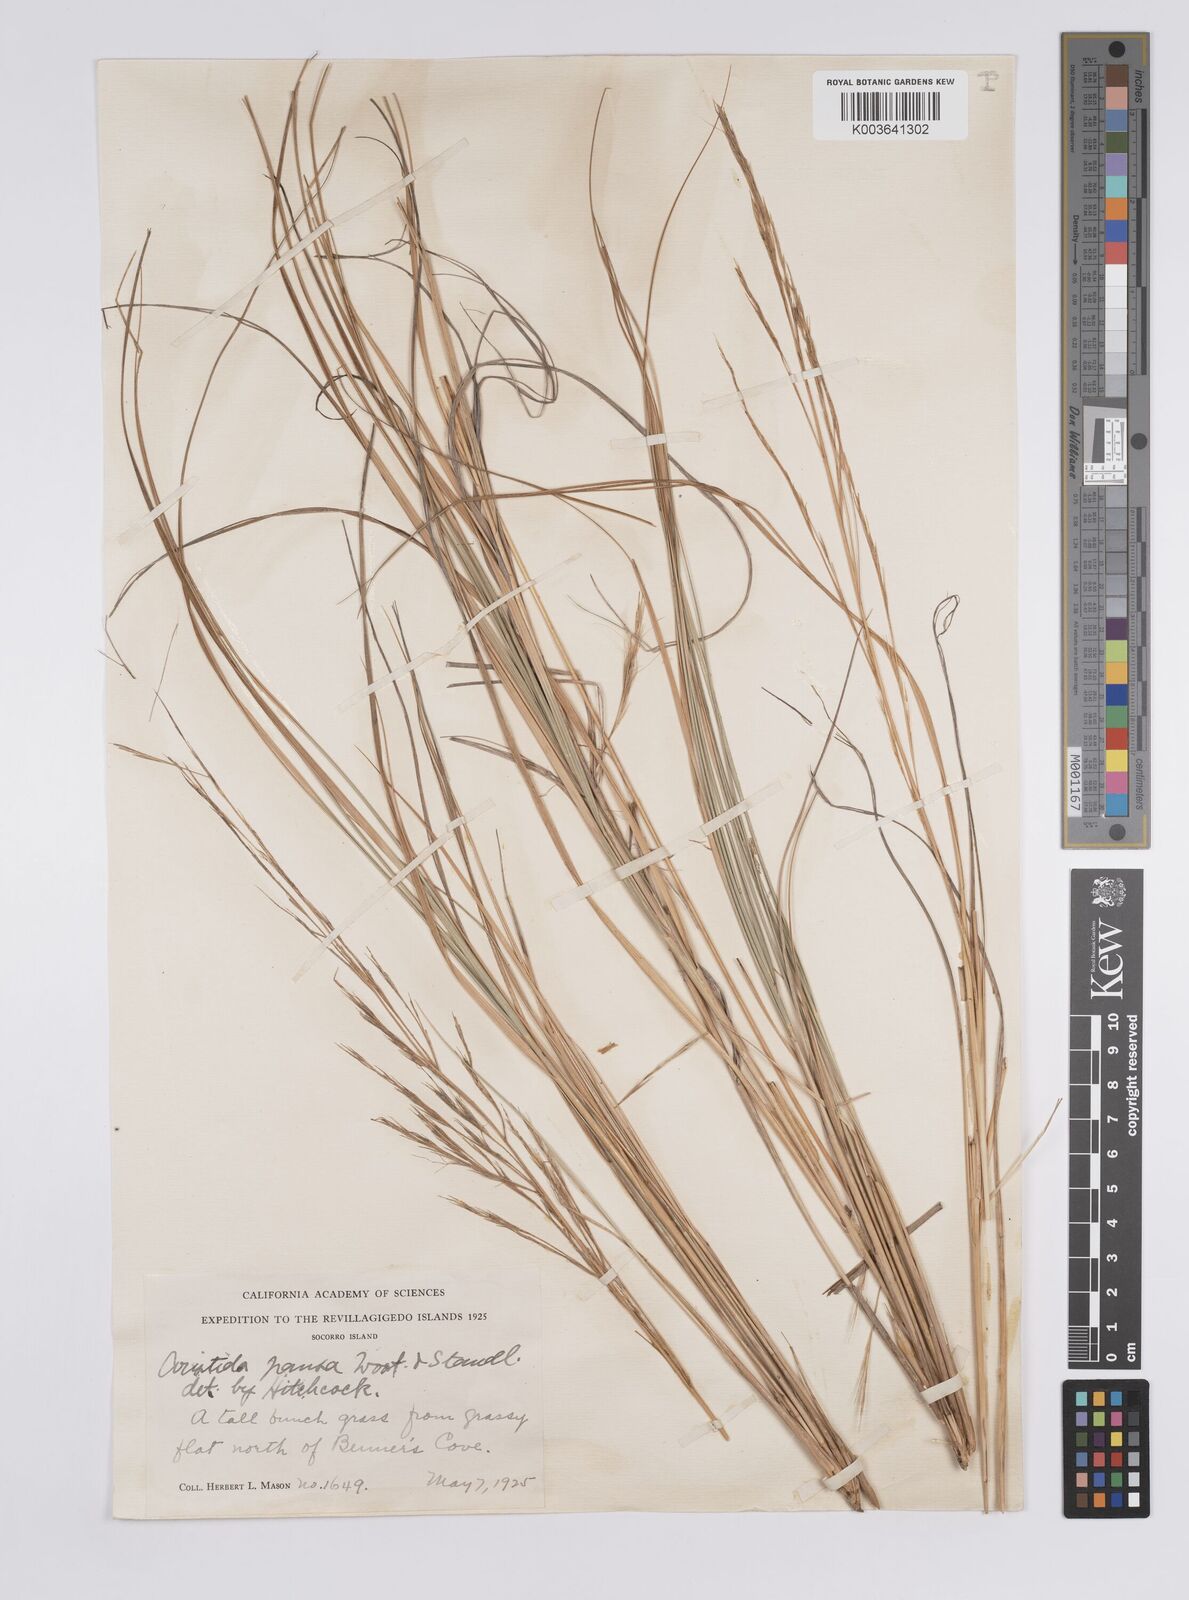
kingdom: Plantae
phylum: Tracheophyta
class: Liliopsida
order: Poales
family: Poaceae
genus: Aristida
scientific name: Aristida pansa
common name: Wooton's three-awn
